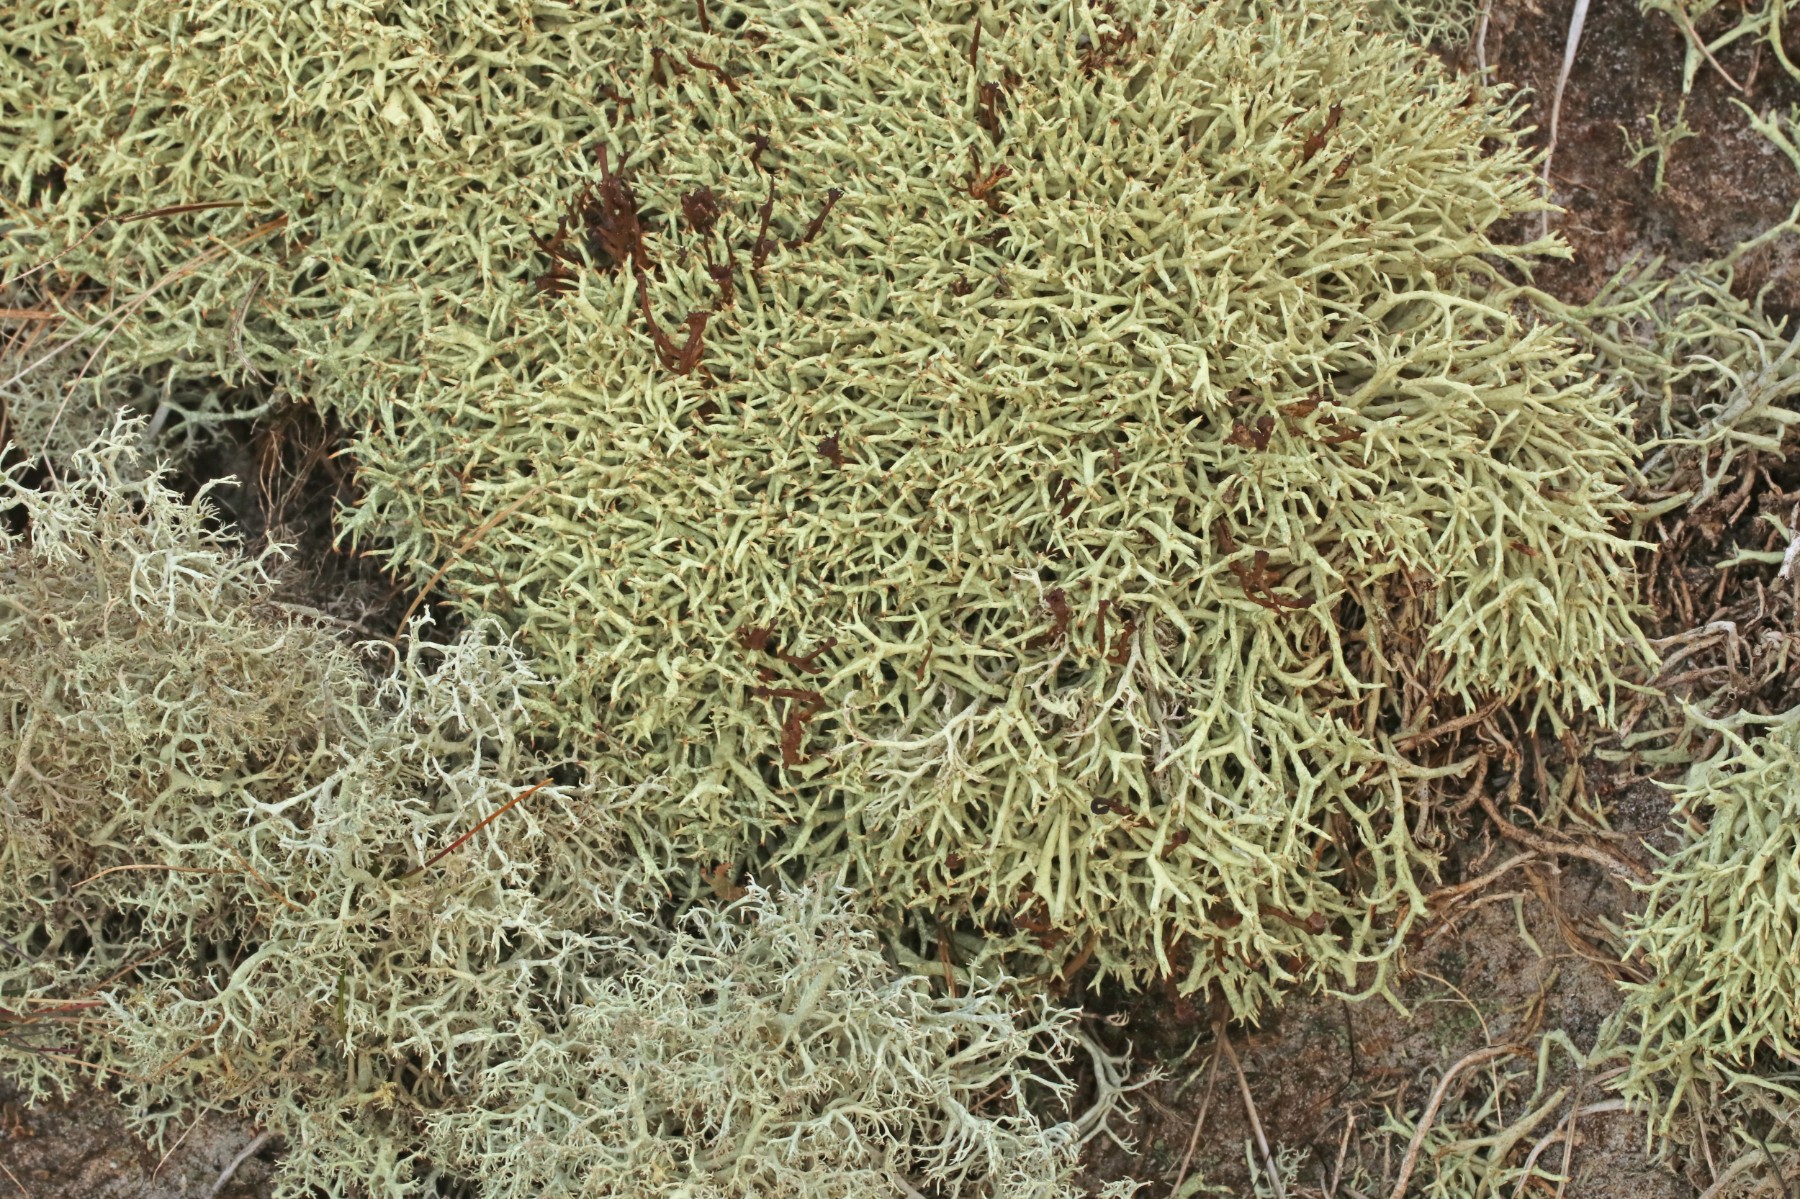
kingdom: Fungi
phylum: Ascomycota
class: Lecanoromycetes
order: Lecanorales
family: Cladoniaceae
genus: Cladonia
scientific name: Cladonia uncialis
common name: pigget bægerlav
